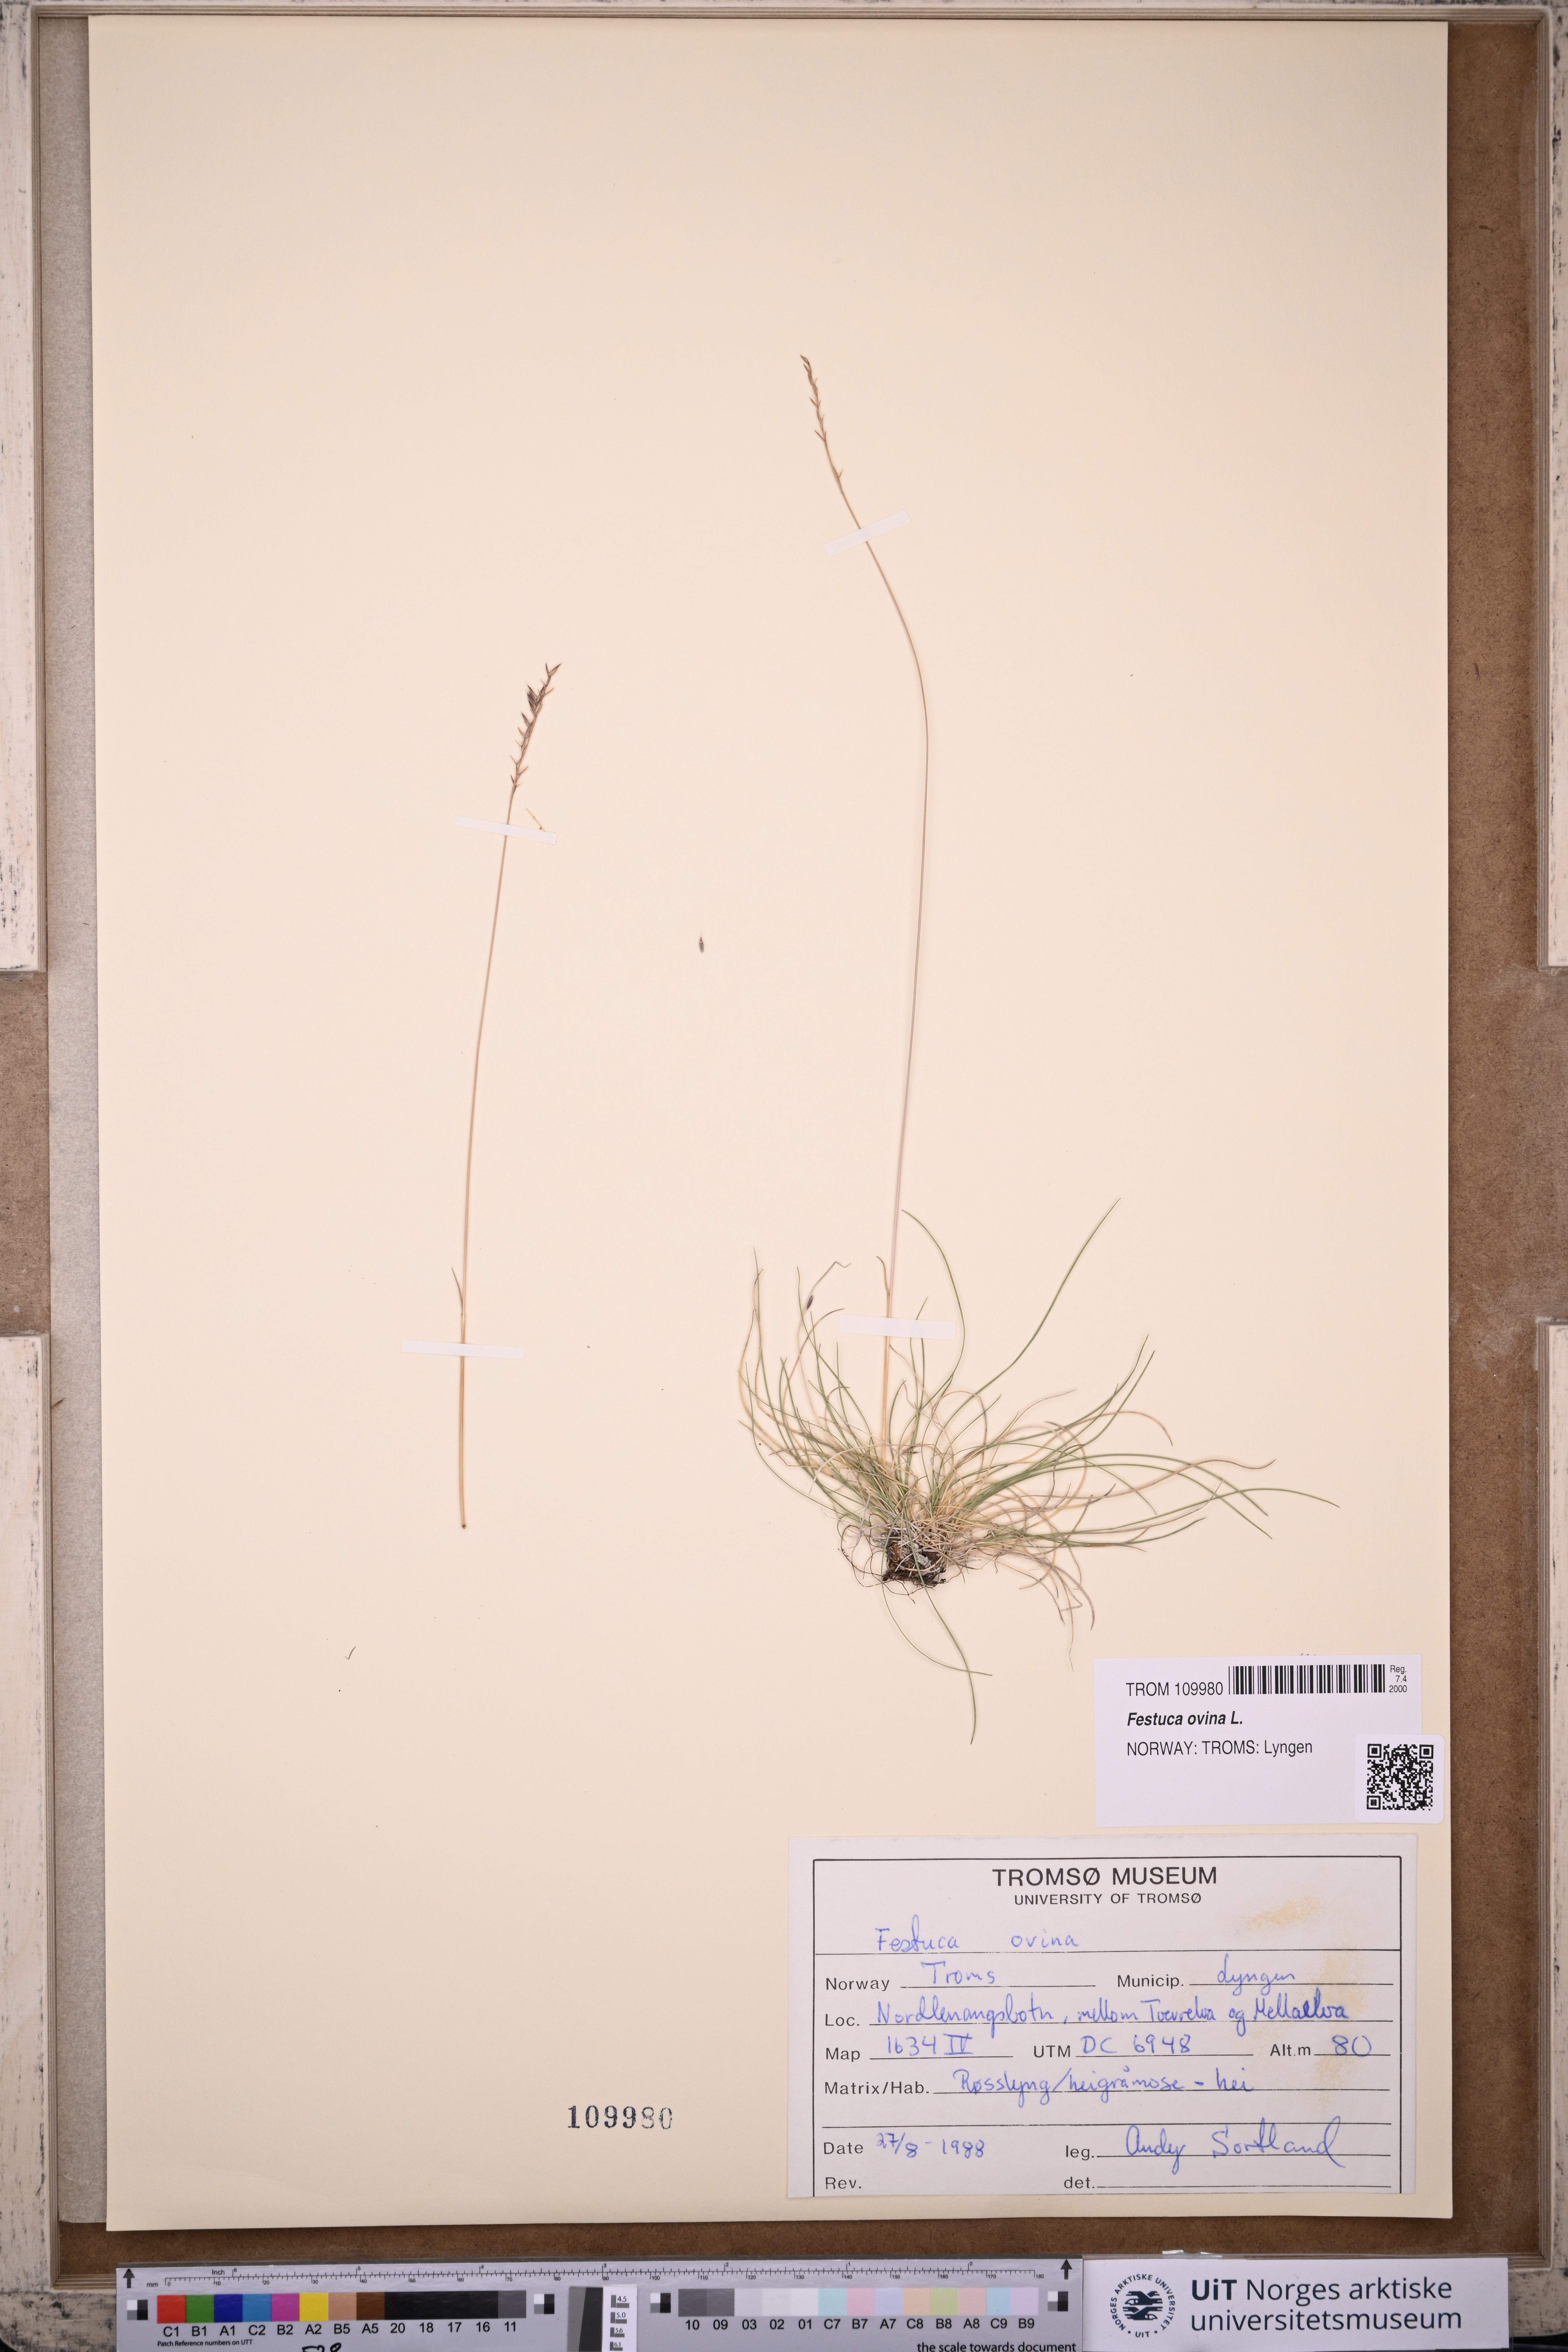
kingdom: Plantae
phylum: Tracheophyta
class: Liliopsida
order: Poales
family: Poaceae
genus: Festuca
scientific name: Festuca ovina
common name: Sheep fescue
